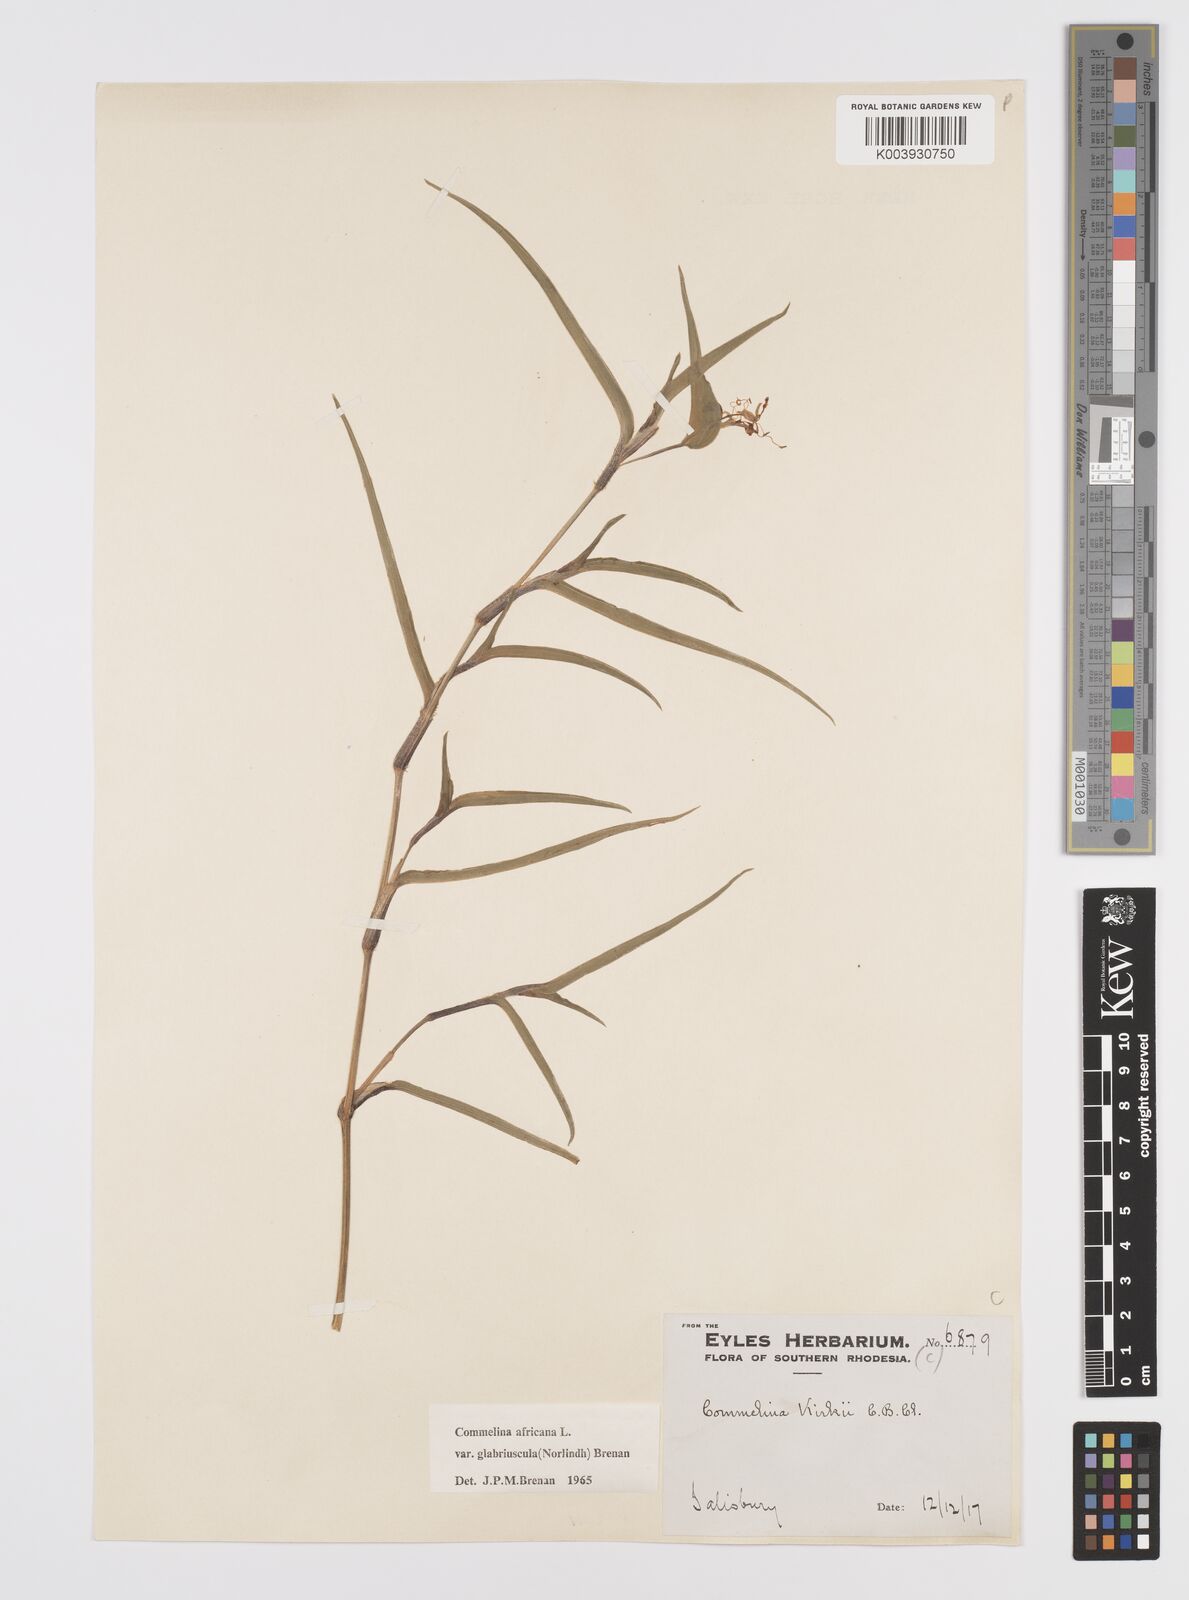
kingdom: Plantae
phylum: Tracheophyta
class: Liliopsida
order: Commelinales
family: Commelinaceae
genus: Commelina
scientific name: Commelina africana
